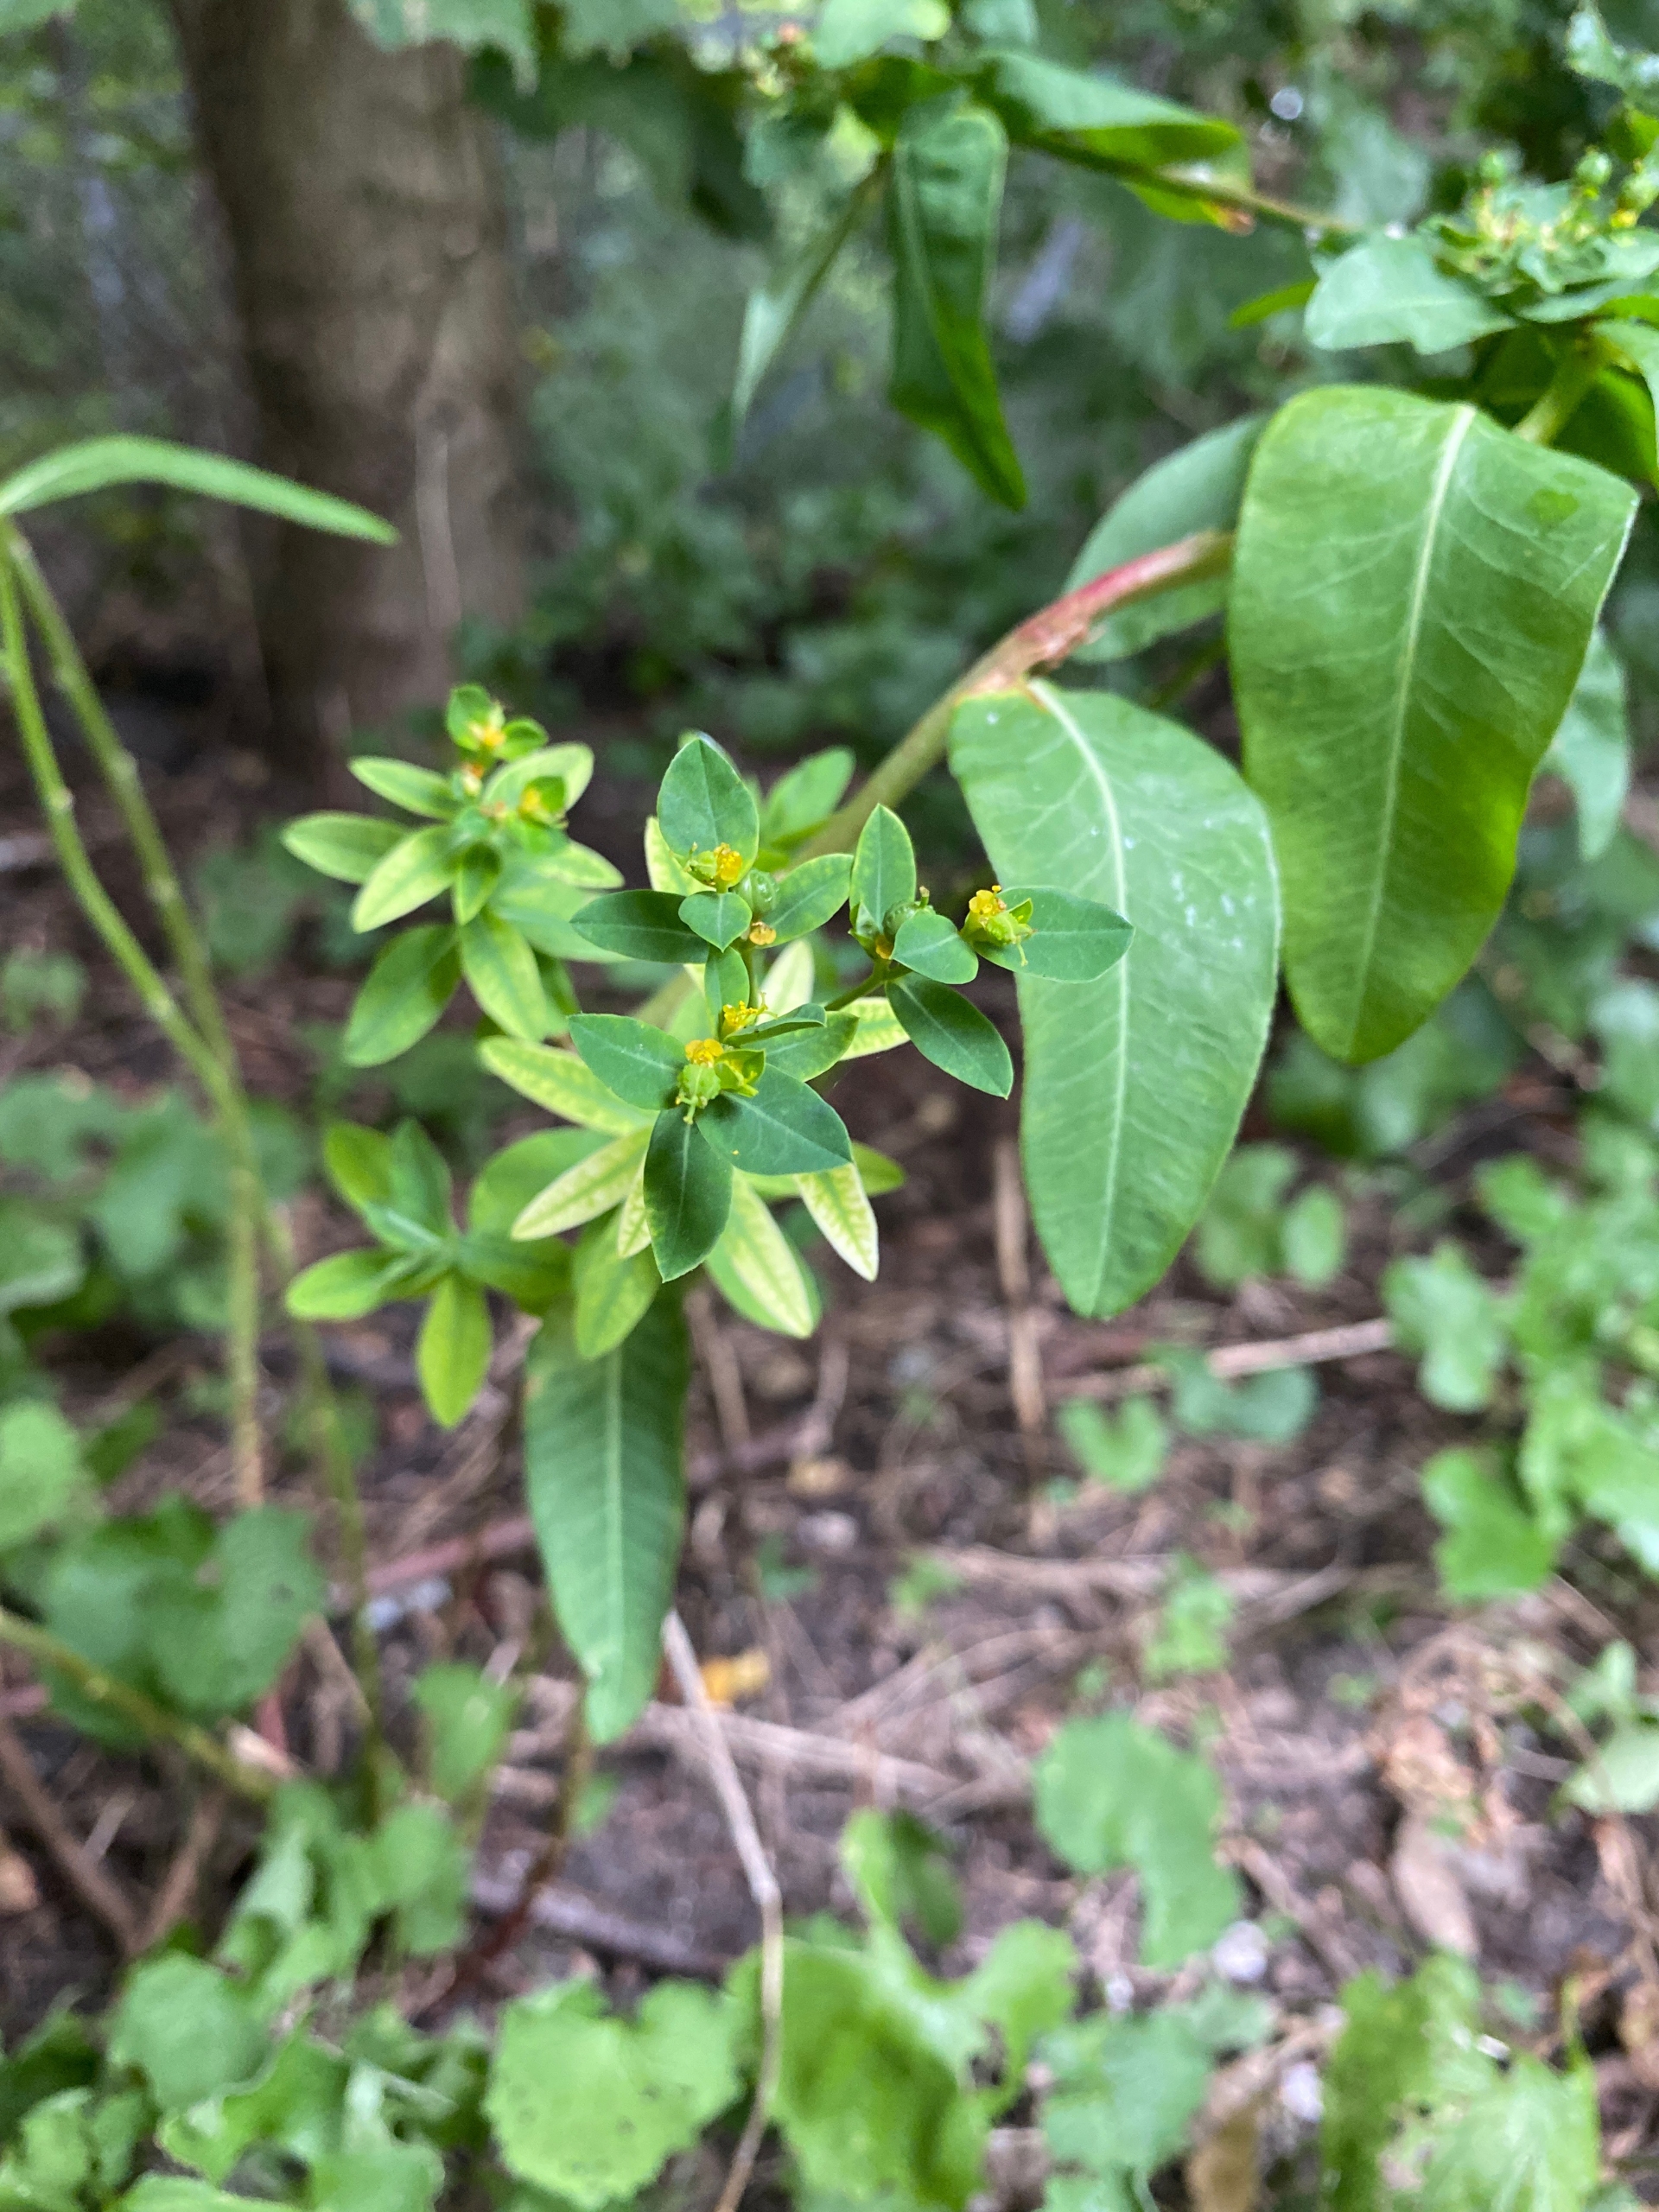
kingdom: Plantae
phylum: Tracheophyta
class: Magnoliopsida
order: Malpighiales
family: Euphorbiaceae
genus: Euphorbia
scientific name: Euphorbia oblongata
